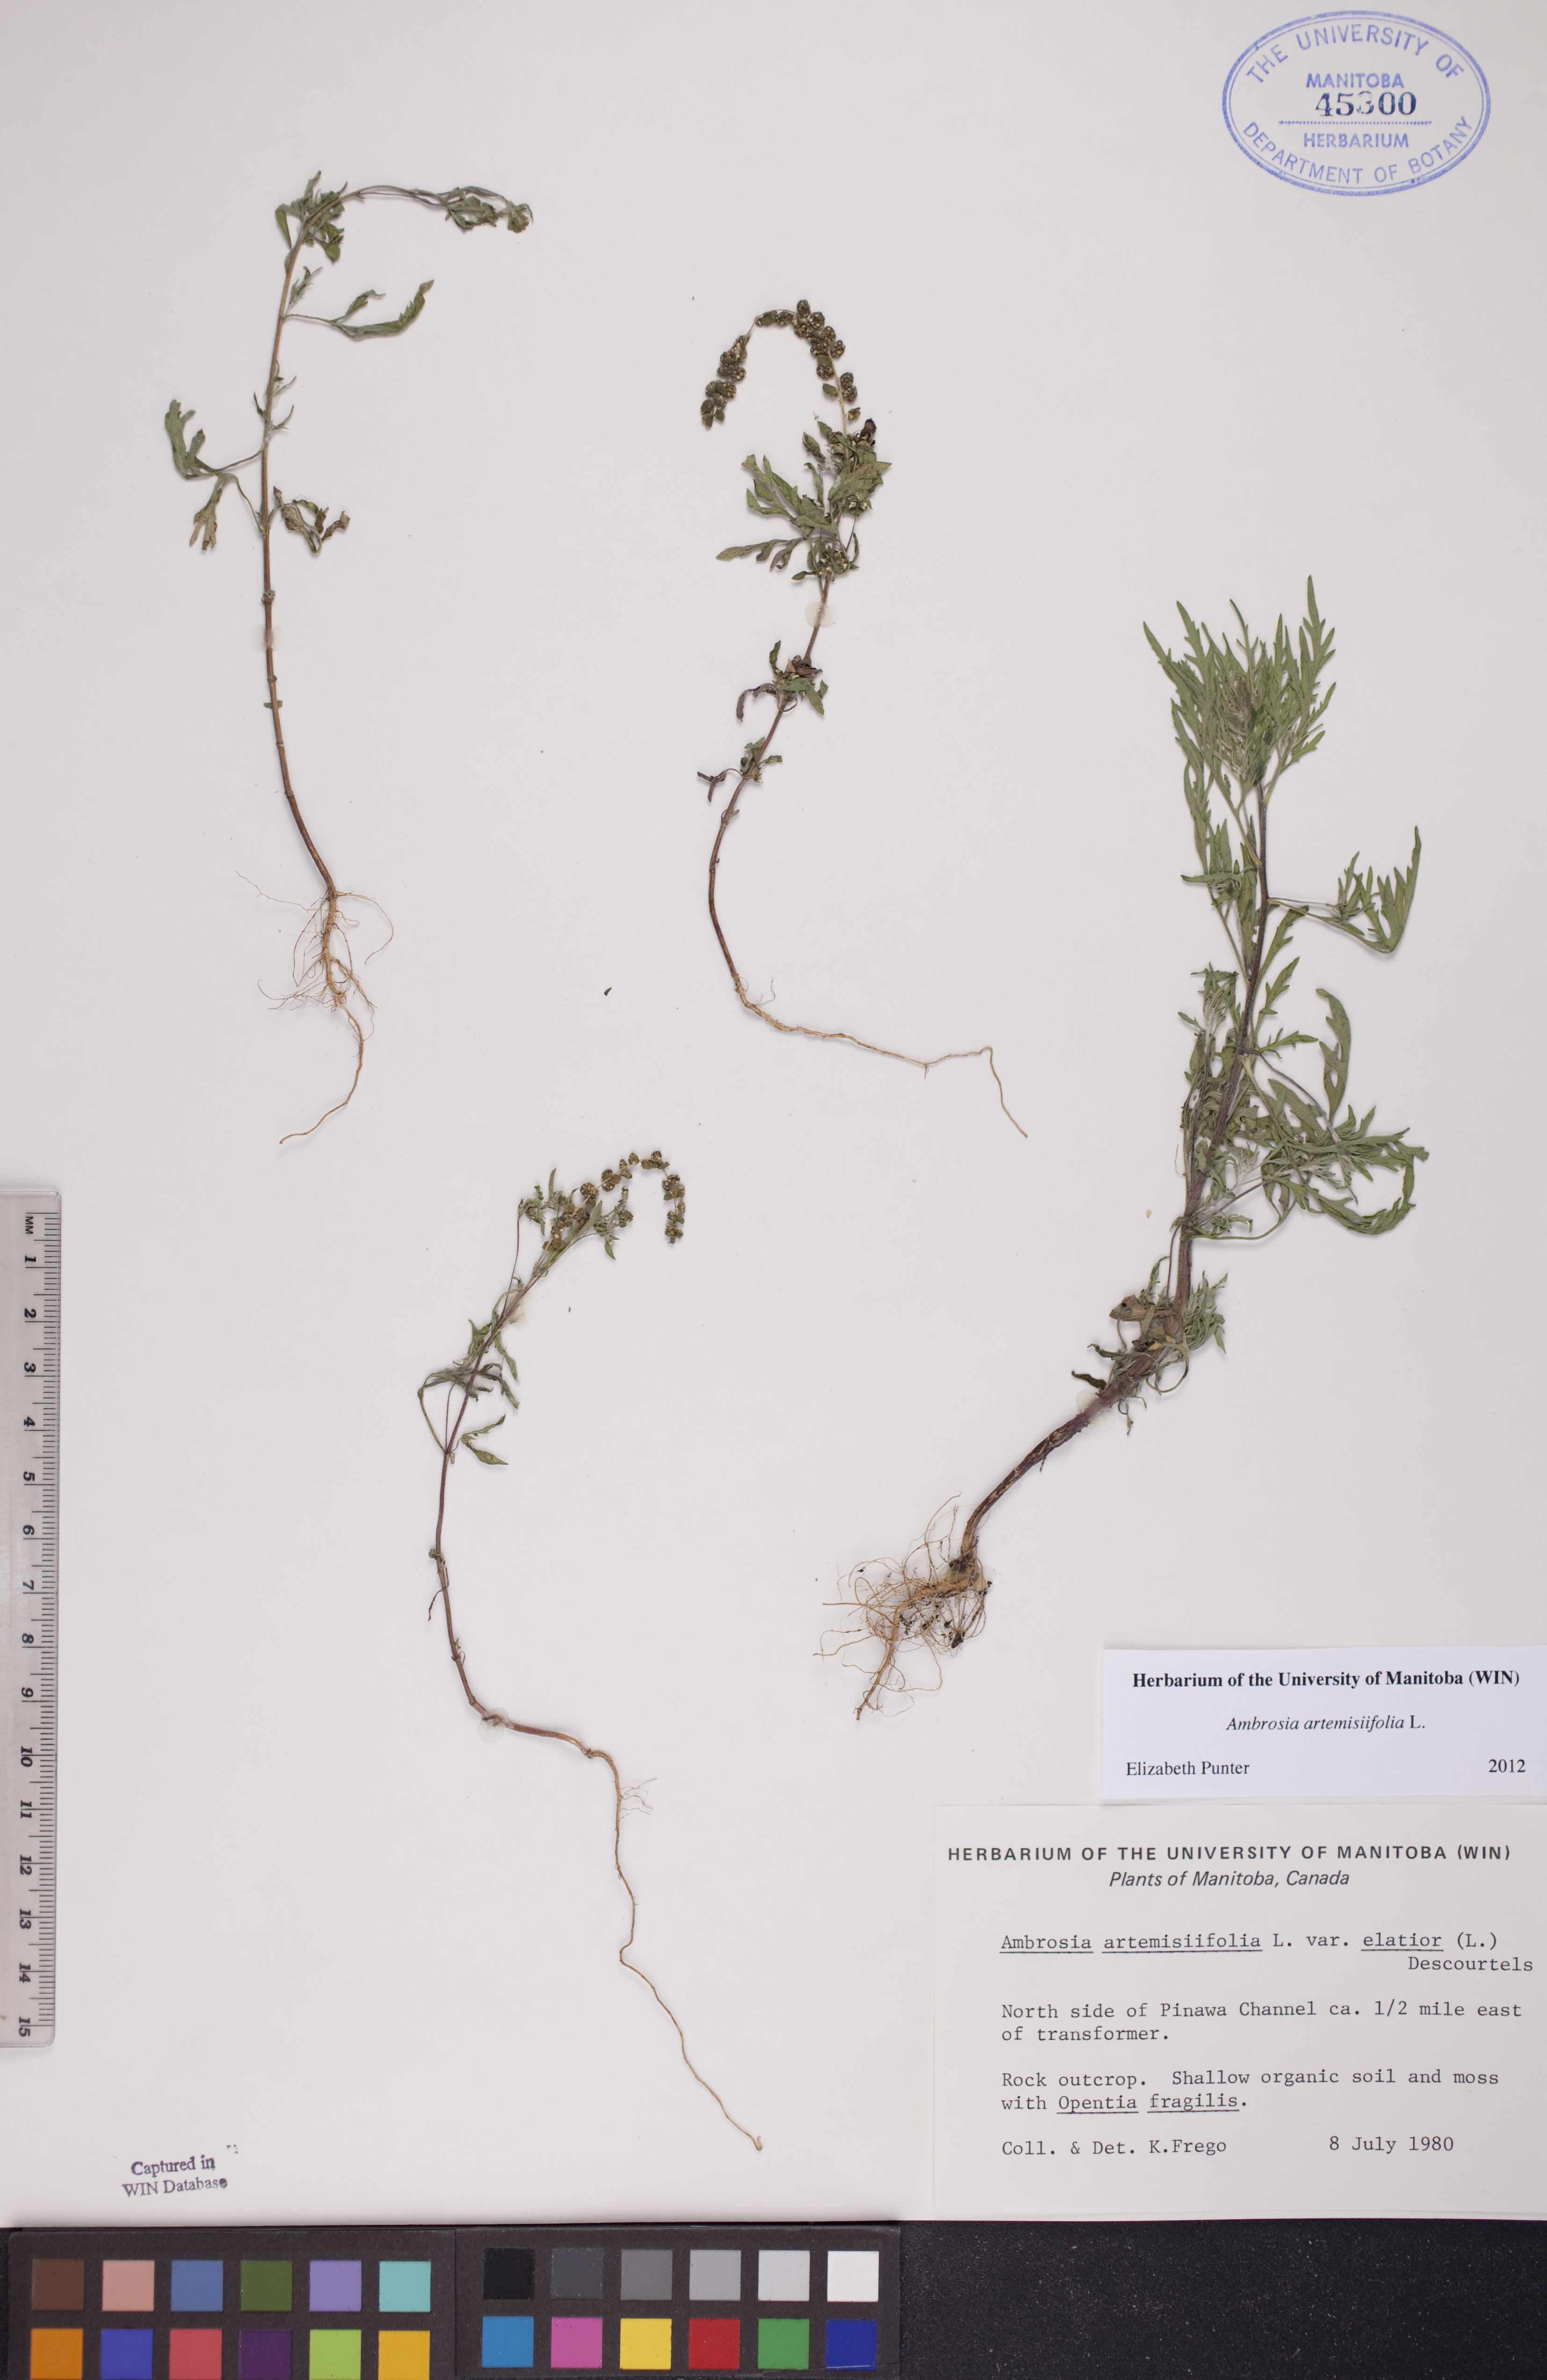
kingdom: Plantae
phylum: Tracheophyta
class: Magnoliopsida
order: Asterales
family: Asteraceae
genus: Ambrosia
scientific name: Ambrosia artemisiifolia
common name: Annual ragweed
